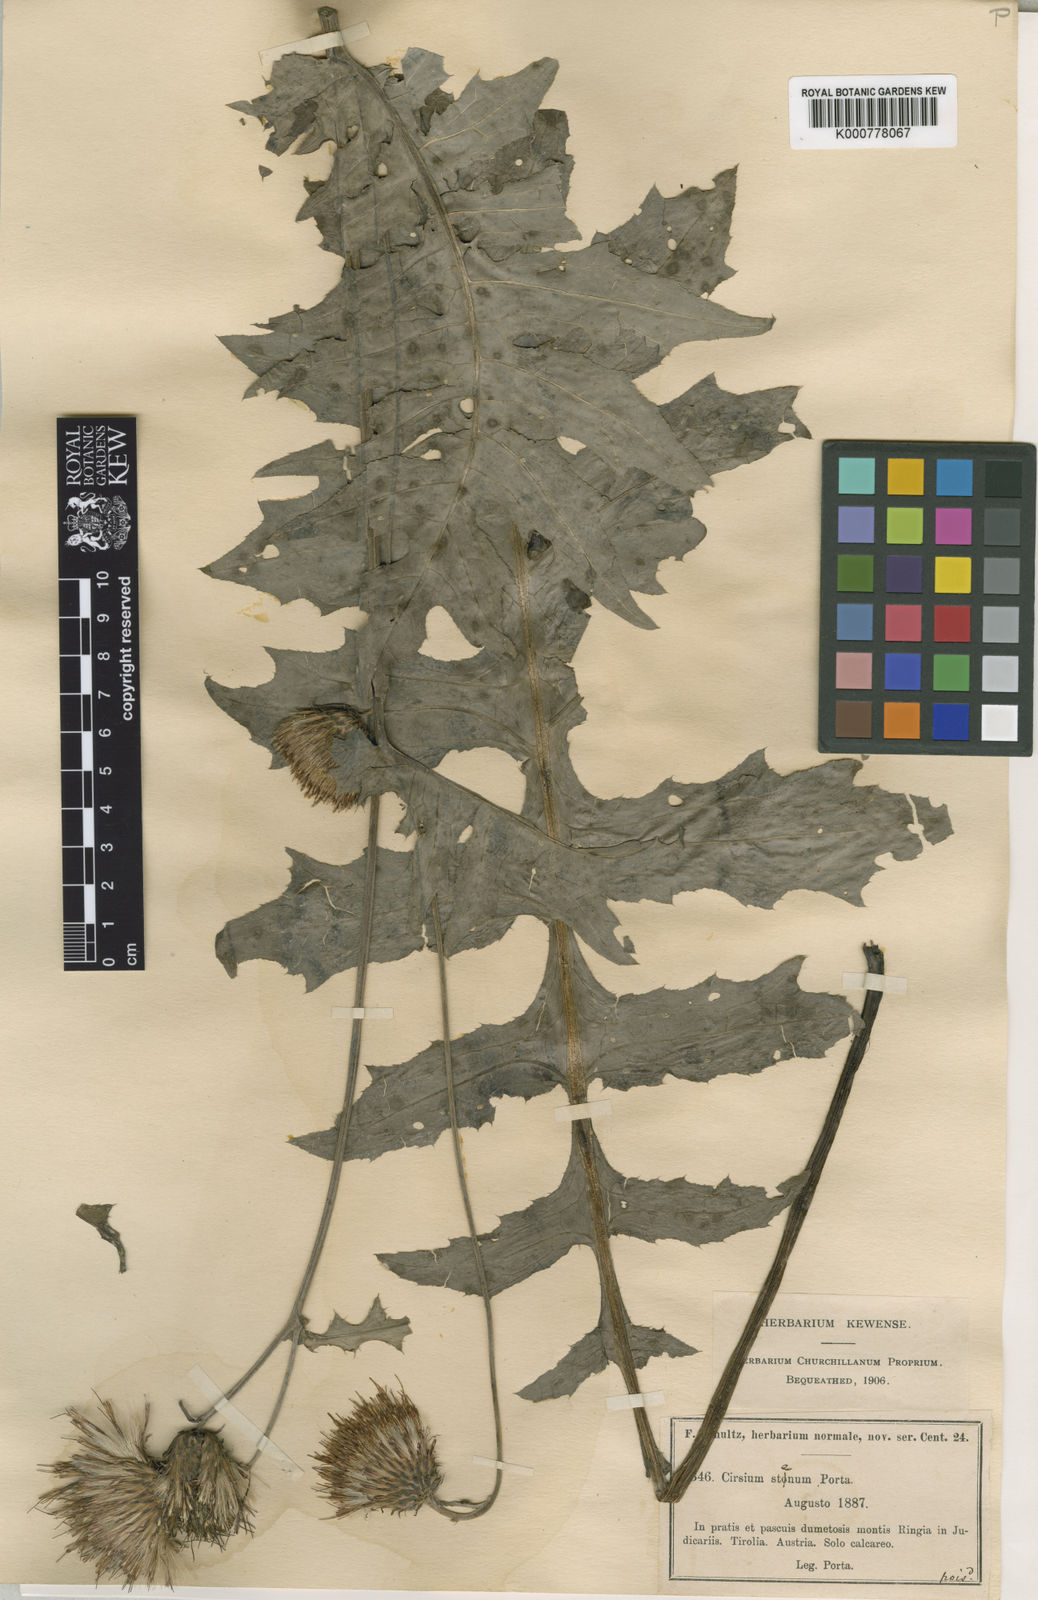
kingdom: Plantae
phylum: Tracheophyta
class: Magnoliopsida
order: Asterales
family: Asteraceae
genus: Cirsium
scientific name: Cirsium erisithales
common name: Yellow thistle
